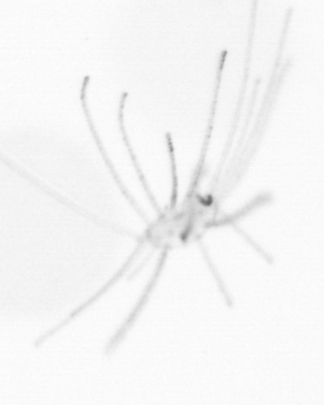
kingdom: Animalia
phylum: Arthropoda
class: Copepoda
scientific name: Copepoda
